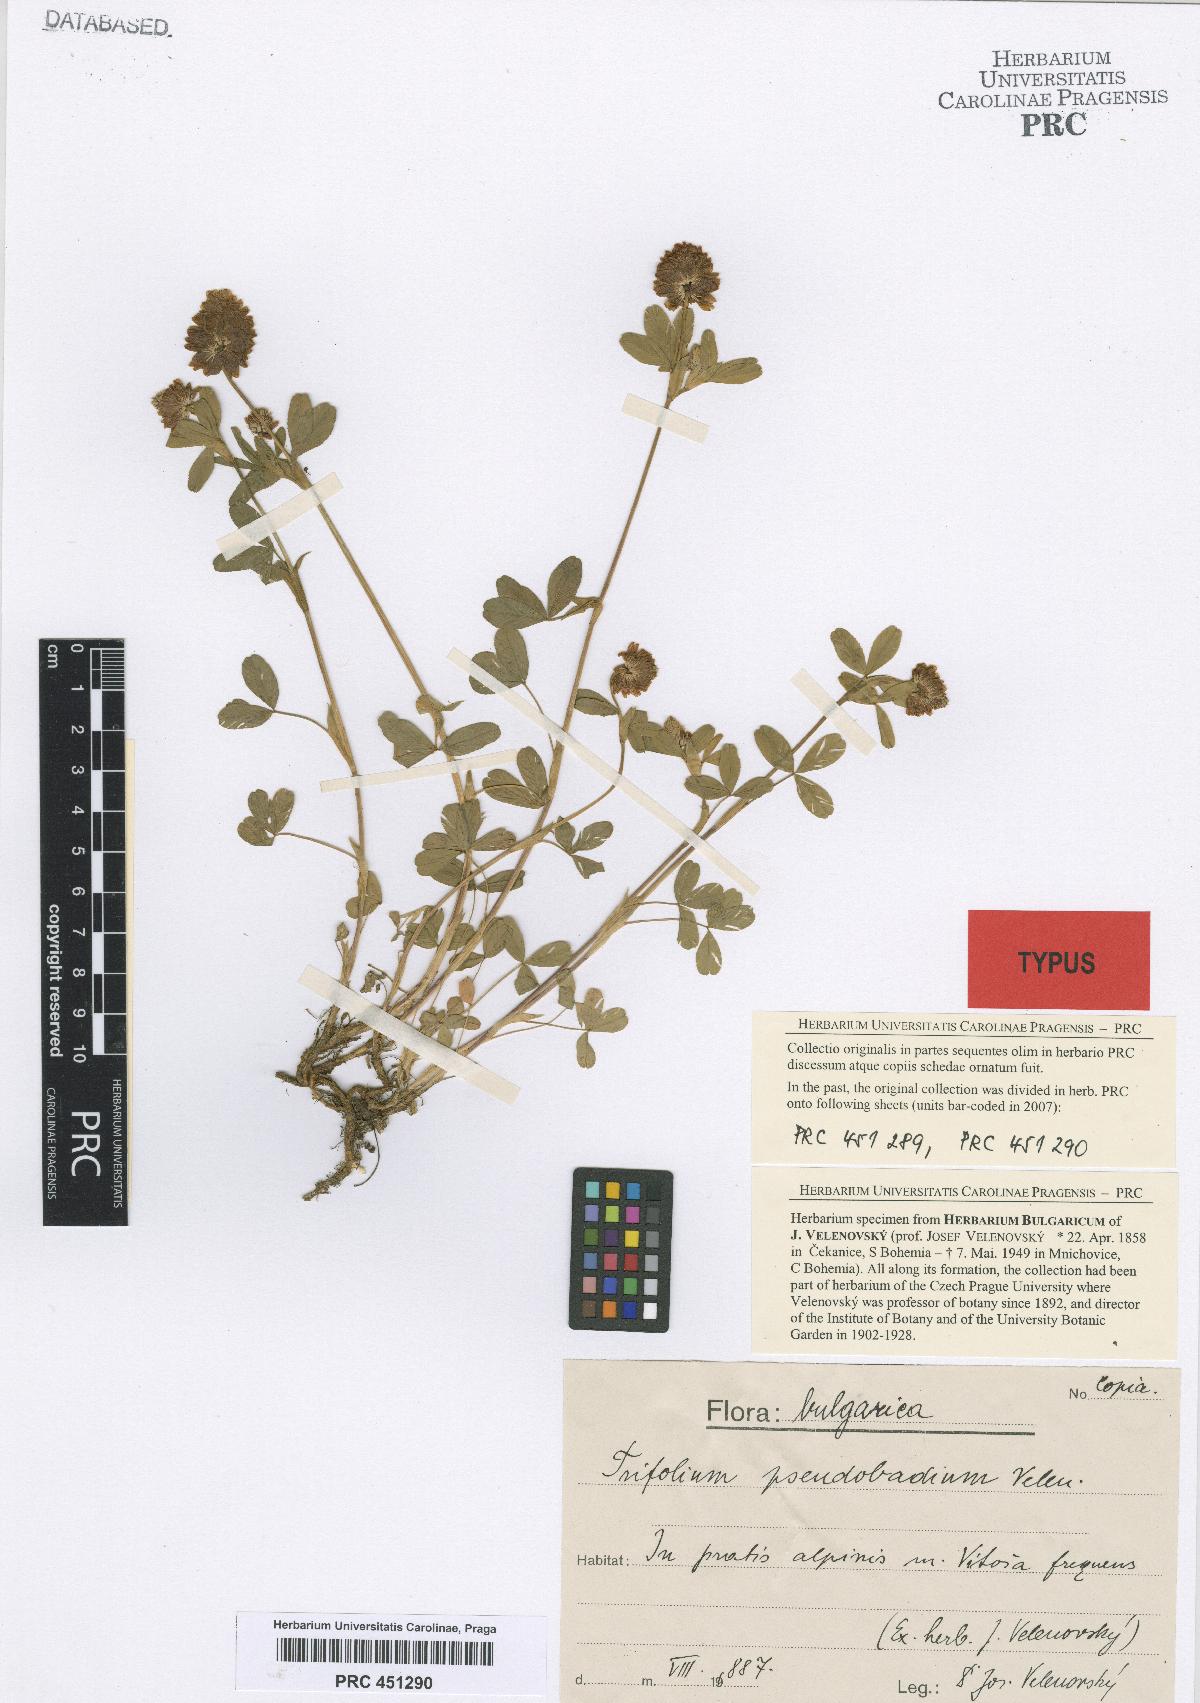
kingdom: Plantae
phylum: Tracheophyta
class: Magnoliopsida
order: Fabales
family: Fabaceae
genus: Trifolium
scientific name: Trifolium badium
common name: Brown clover
